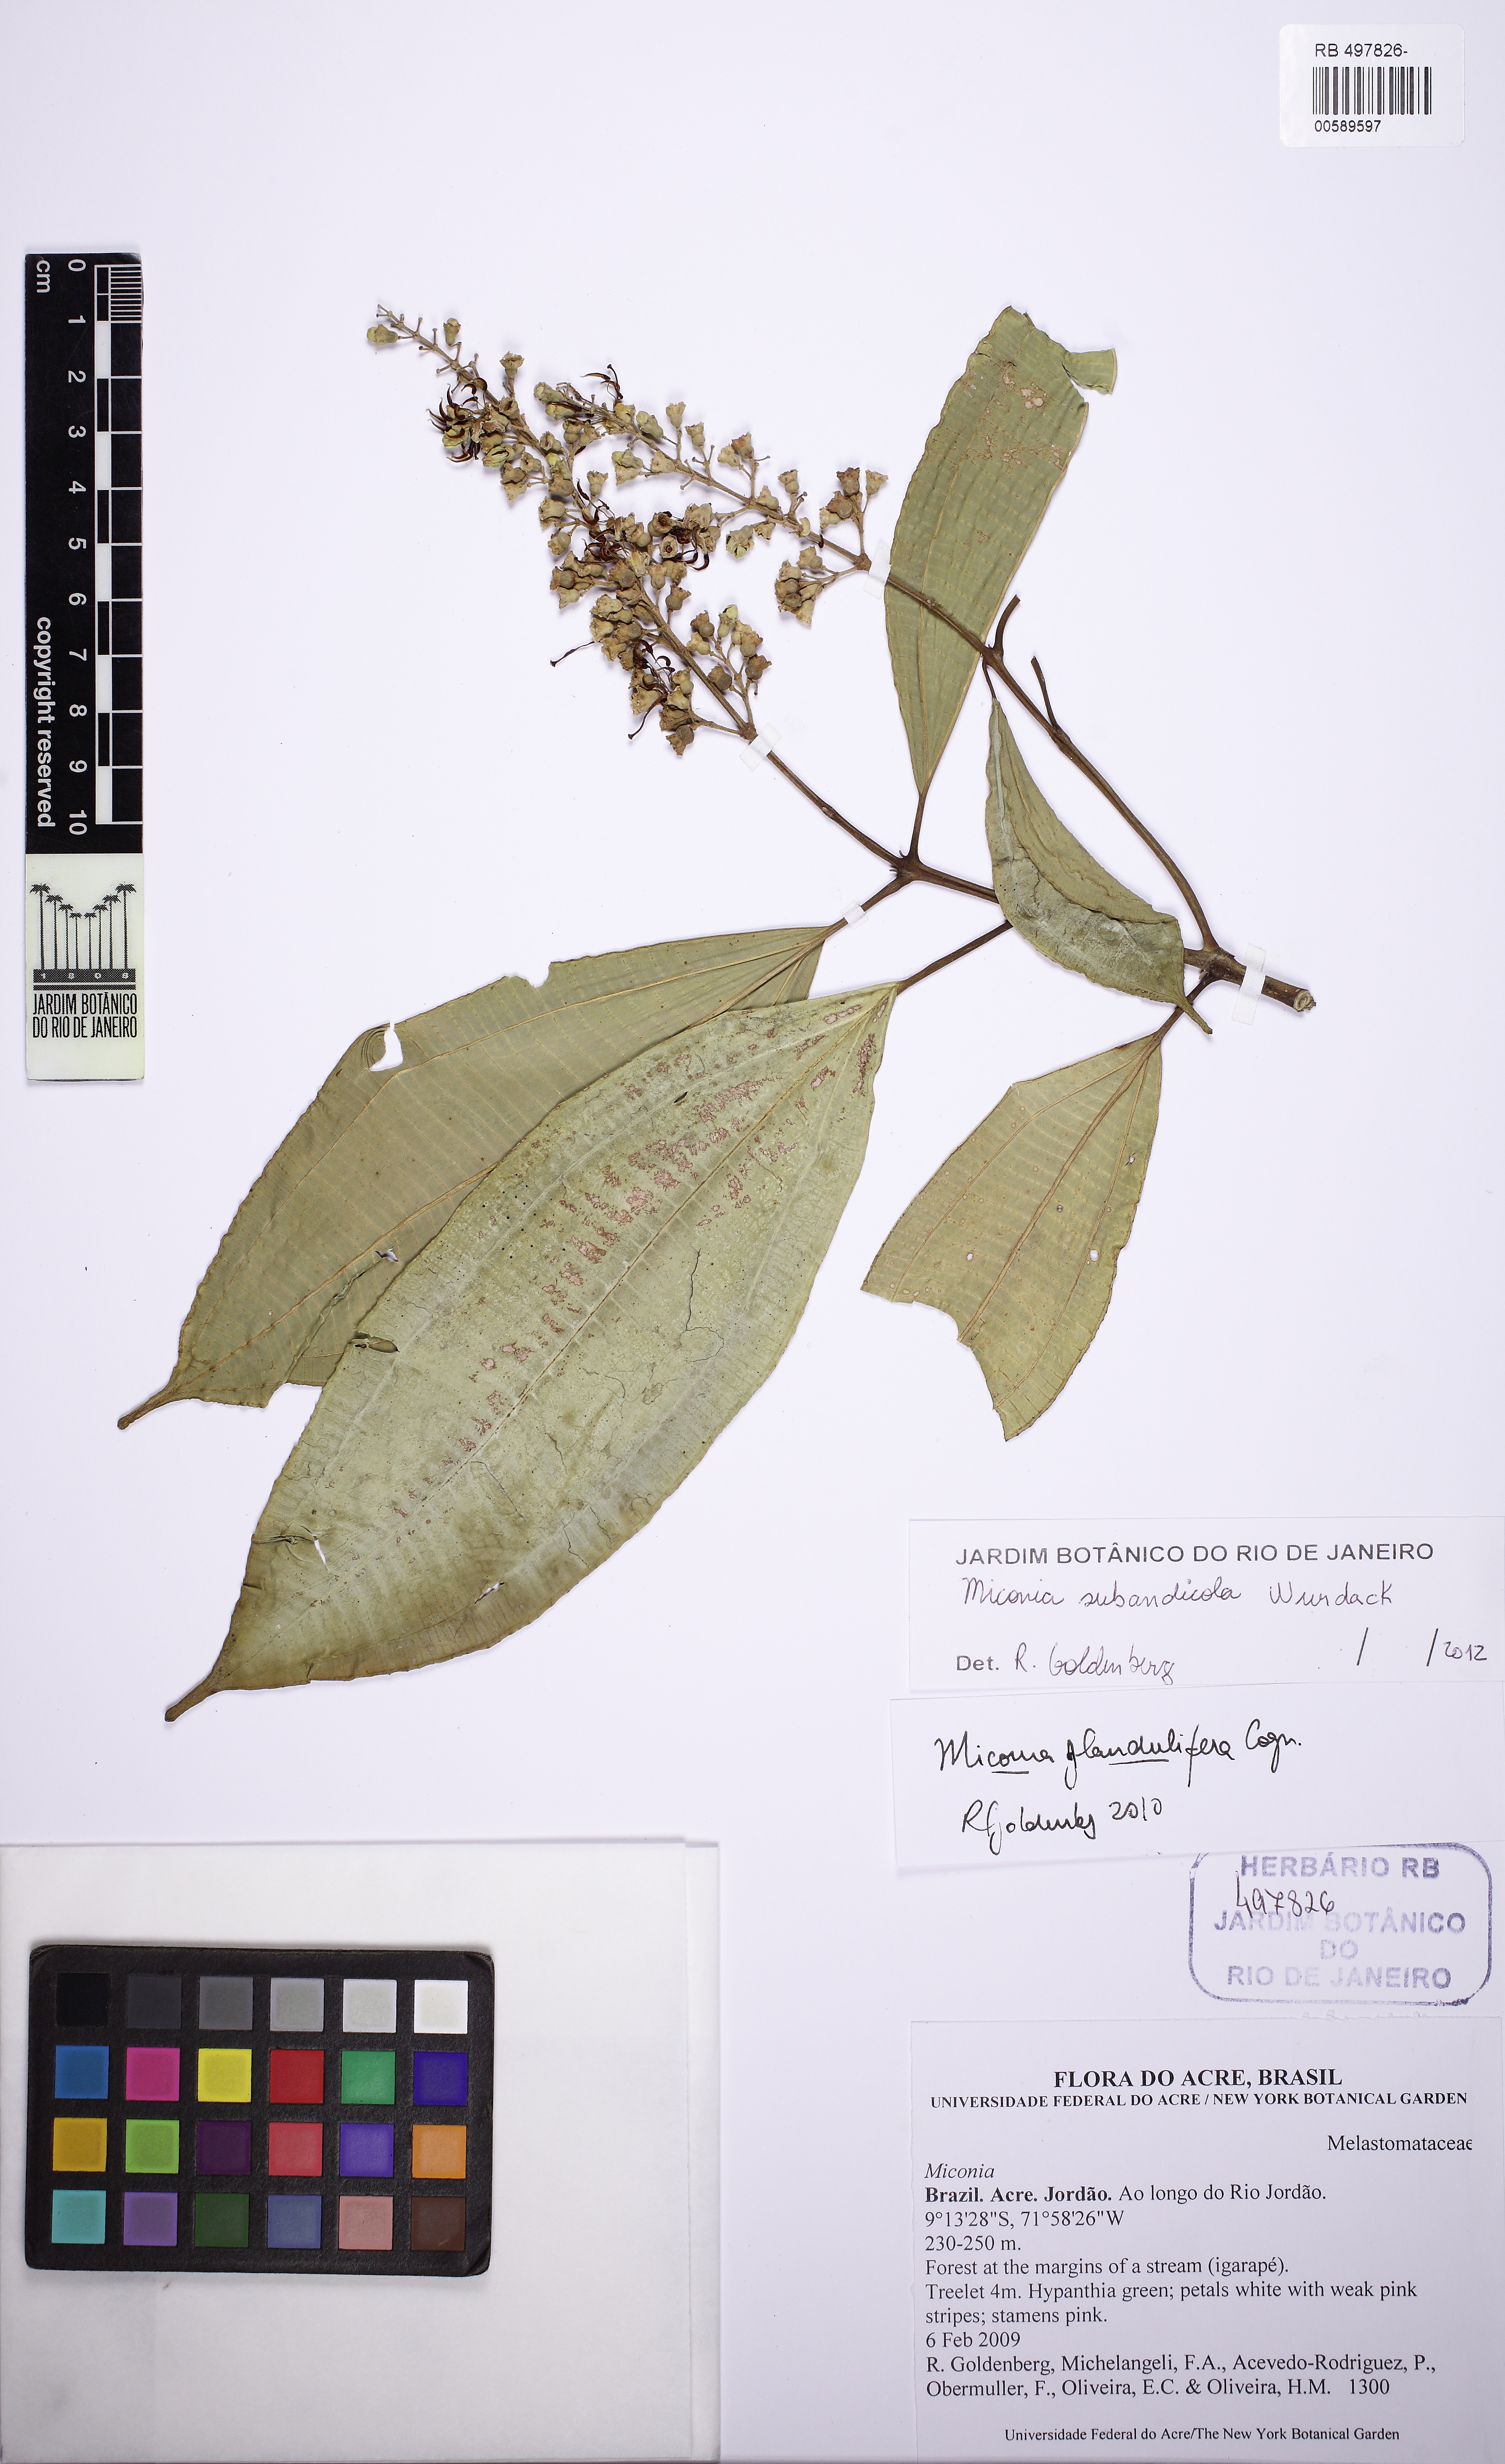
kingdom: Plantae
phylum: Tracheophyta
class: Magnoliopsida
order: Myrtales
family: Melastomataceae
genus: Miconia
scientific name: Miconia subandicola
